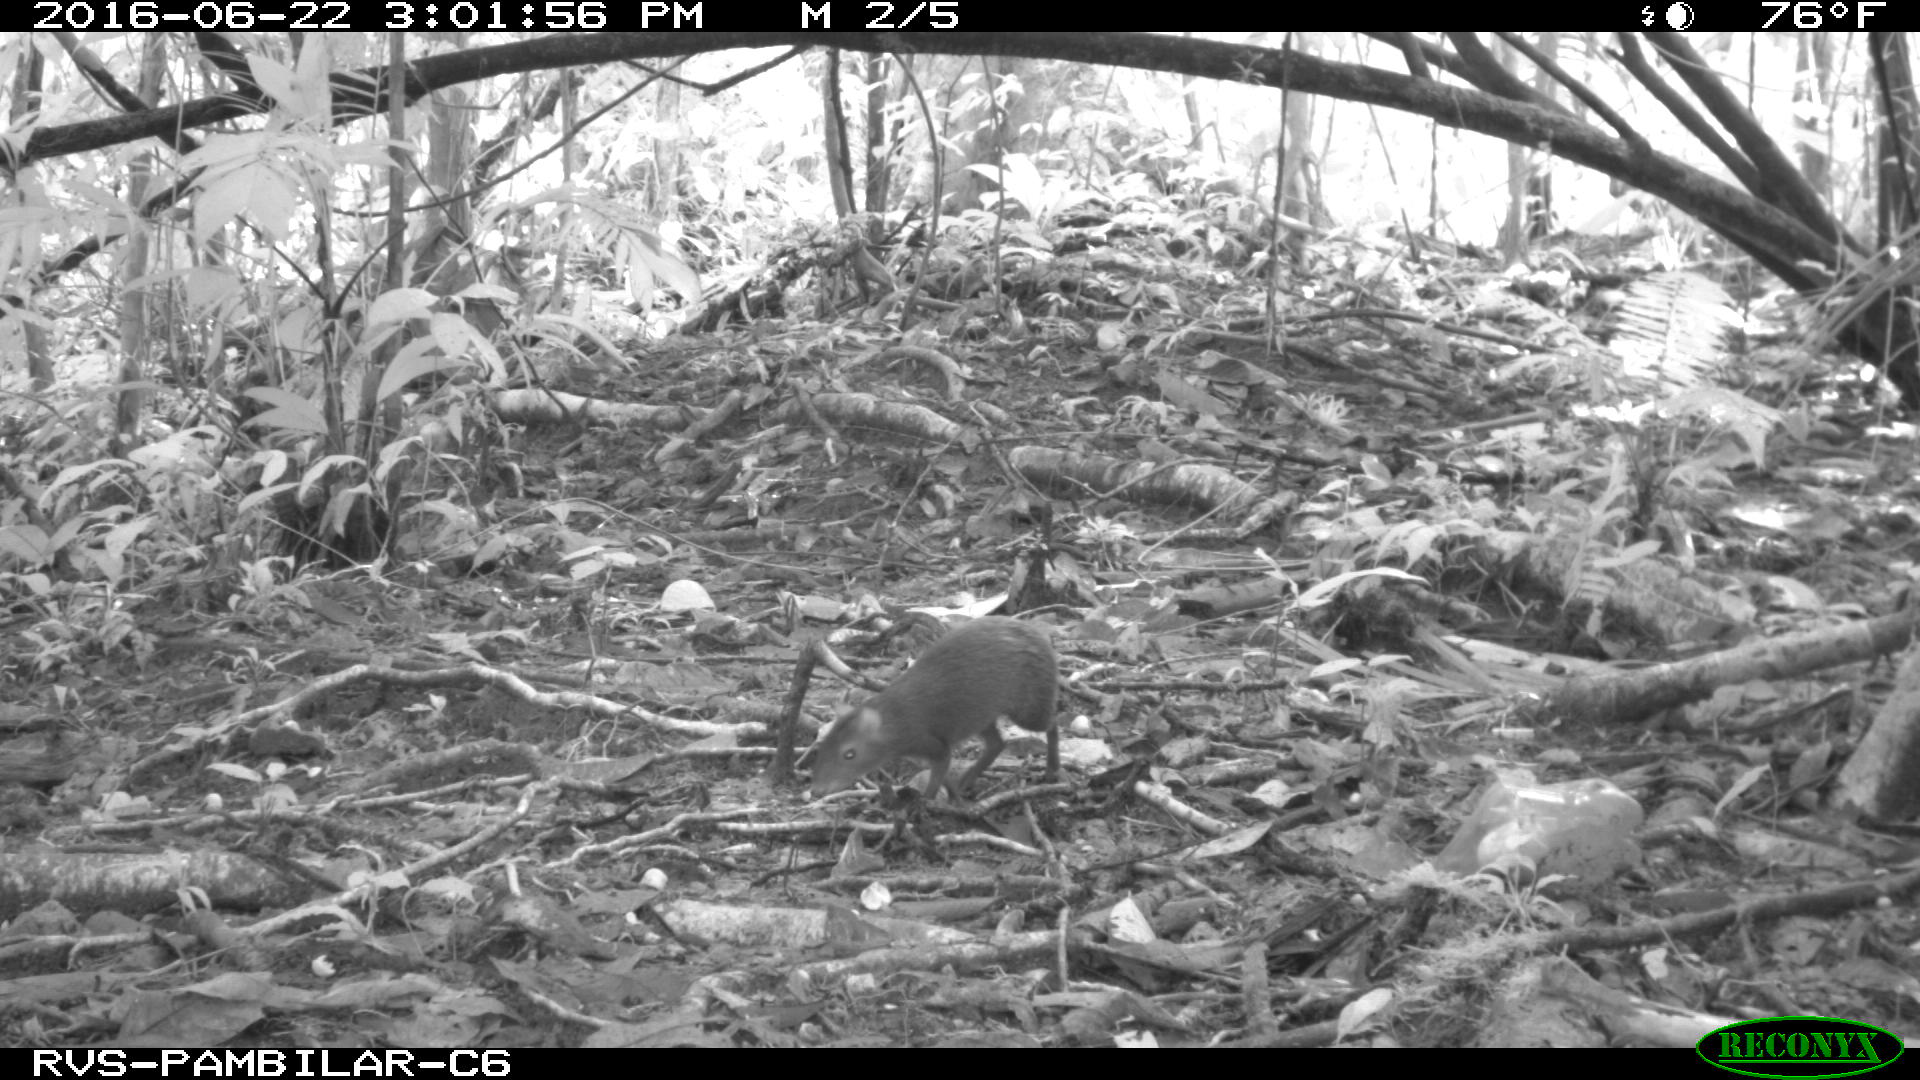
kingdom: Animalia
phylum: Chordata
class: Mammalia
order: Rodentia
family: Dasyproctidae
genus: Dasyprocta
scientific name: Dasyprocta punctata
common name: Central american agouti
